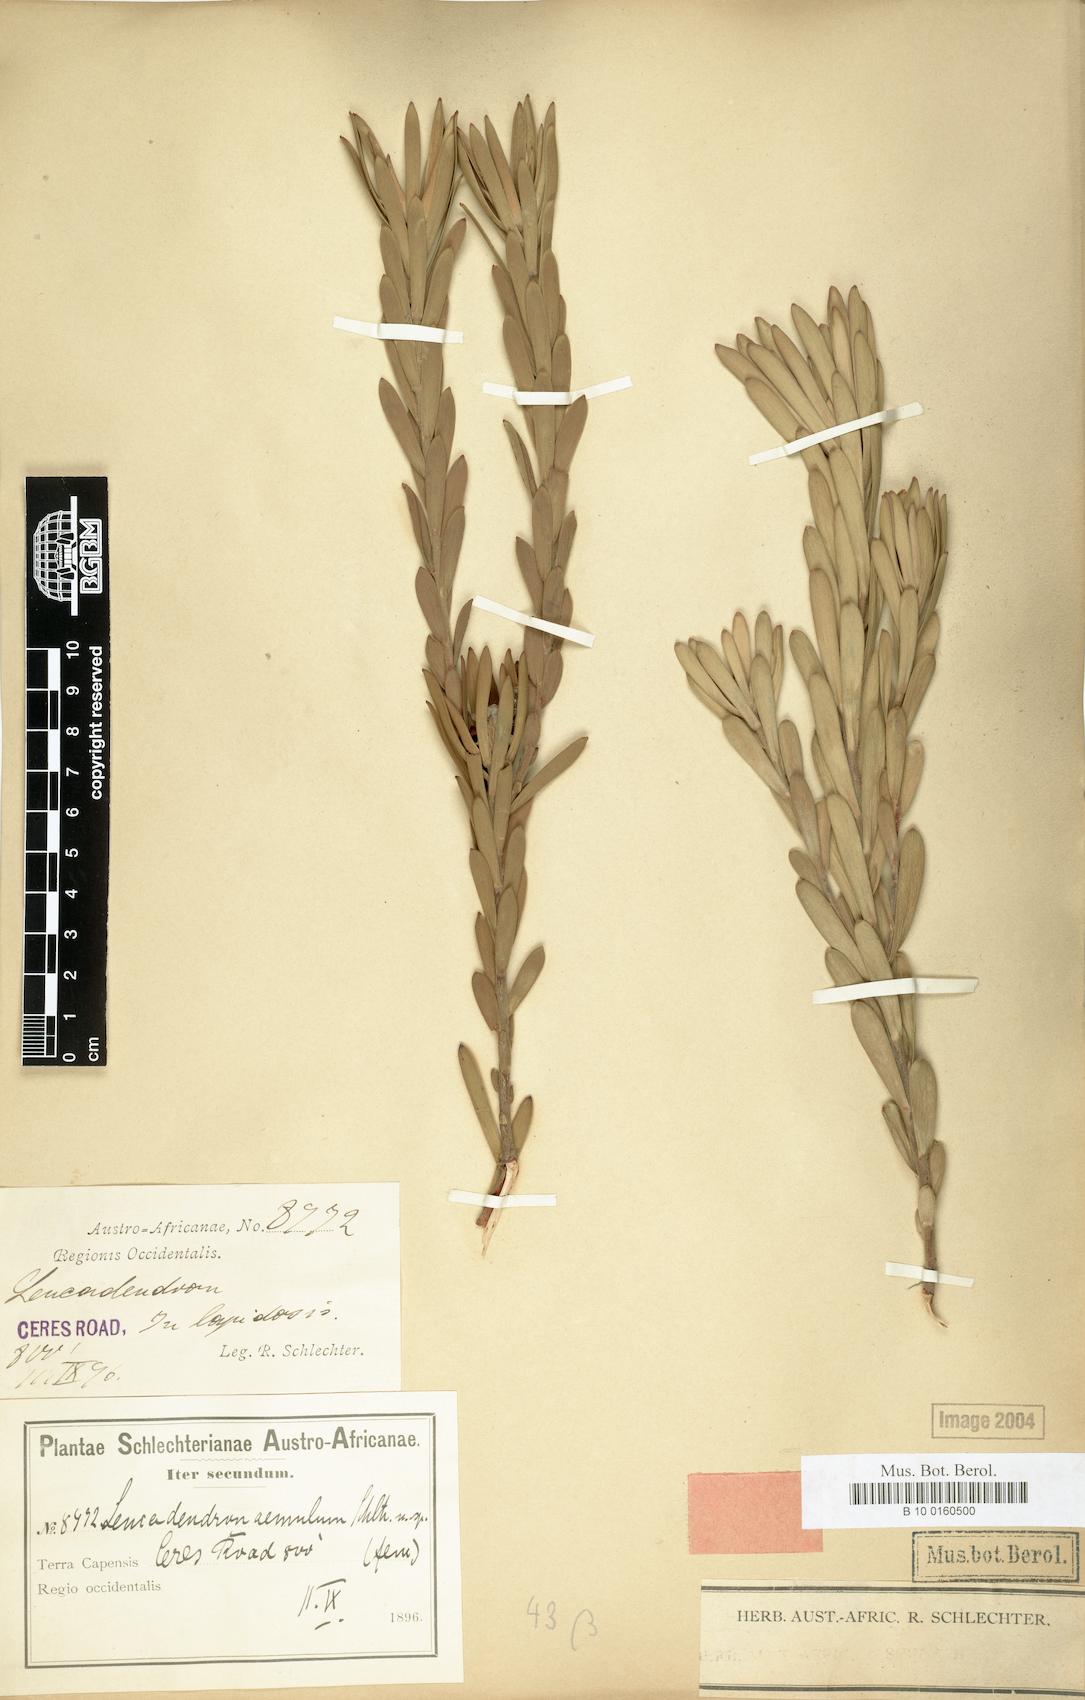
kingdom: Plantae
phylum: Tracheophyta
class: Magnoliopsida
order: Proteales
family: Proteaceae
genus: Leucadendron
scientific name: Leucadendron lanigerum
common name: Shale conebush
